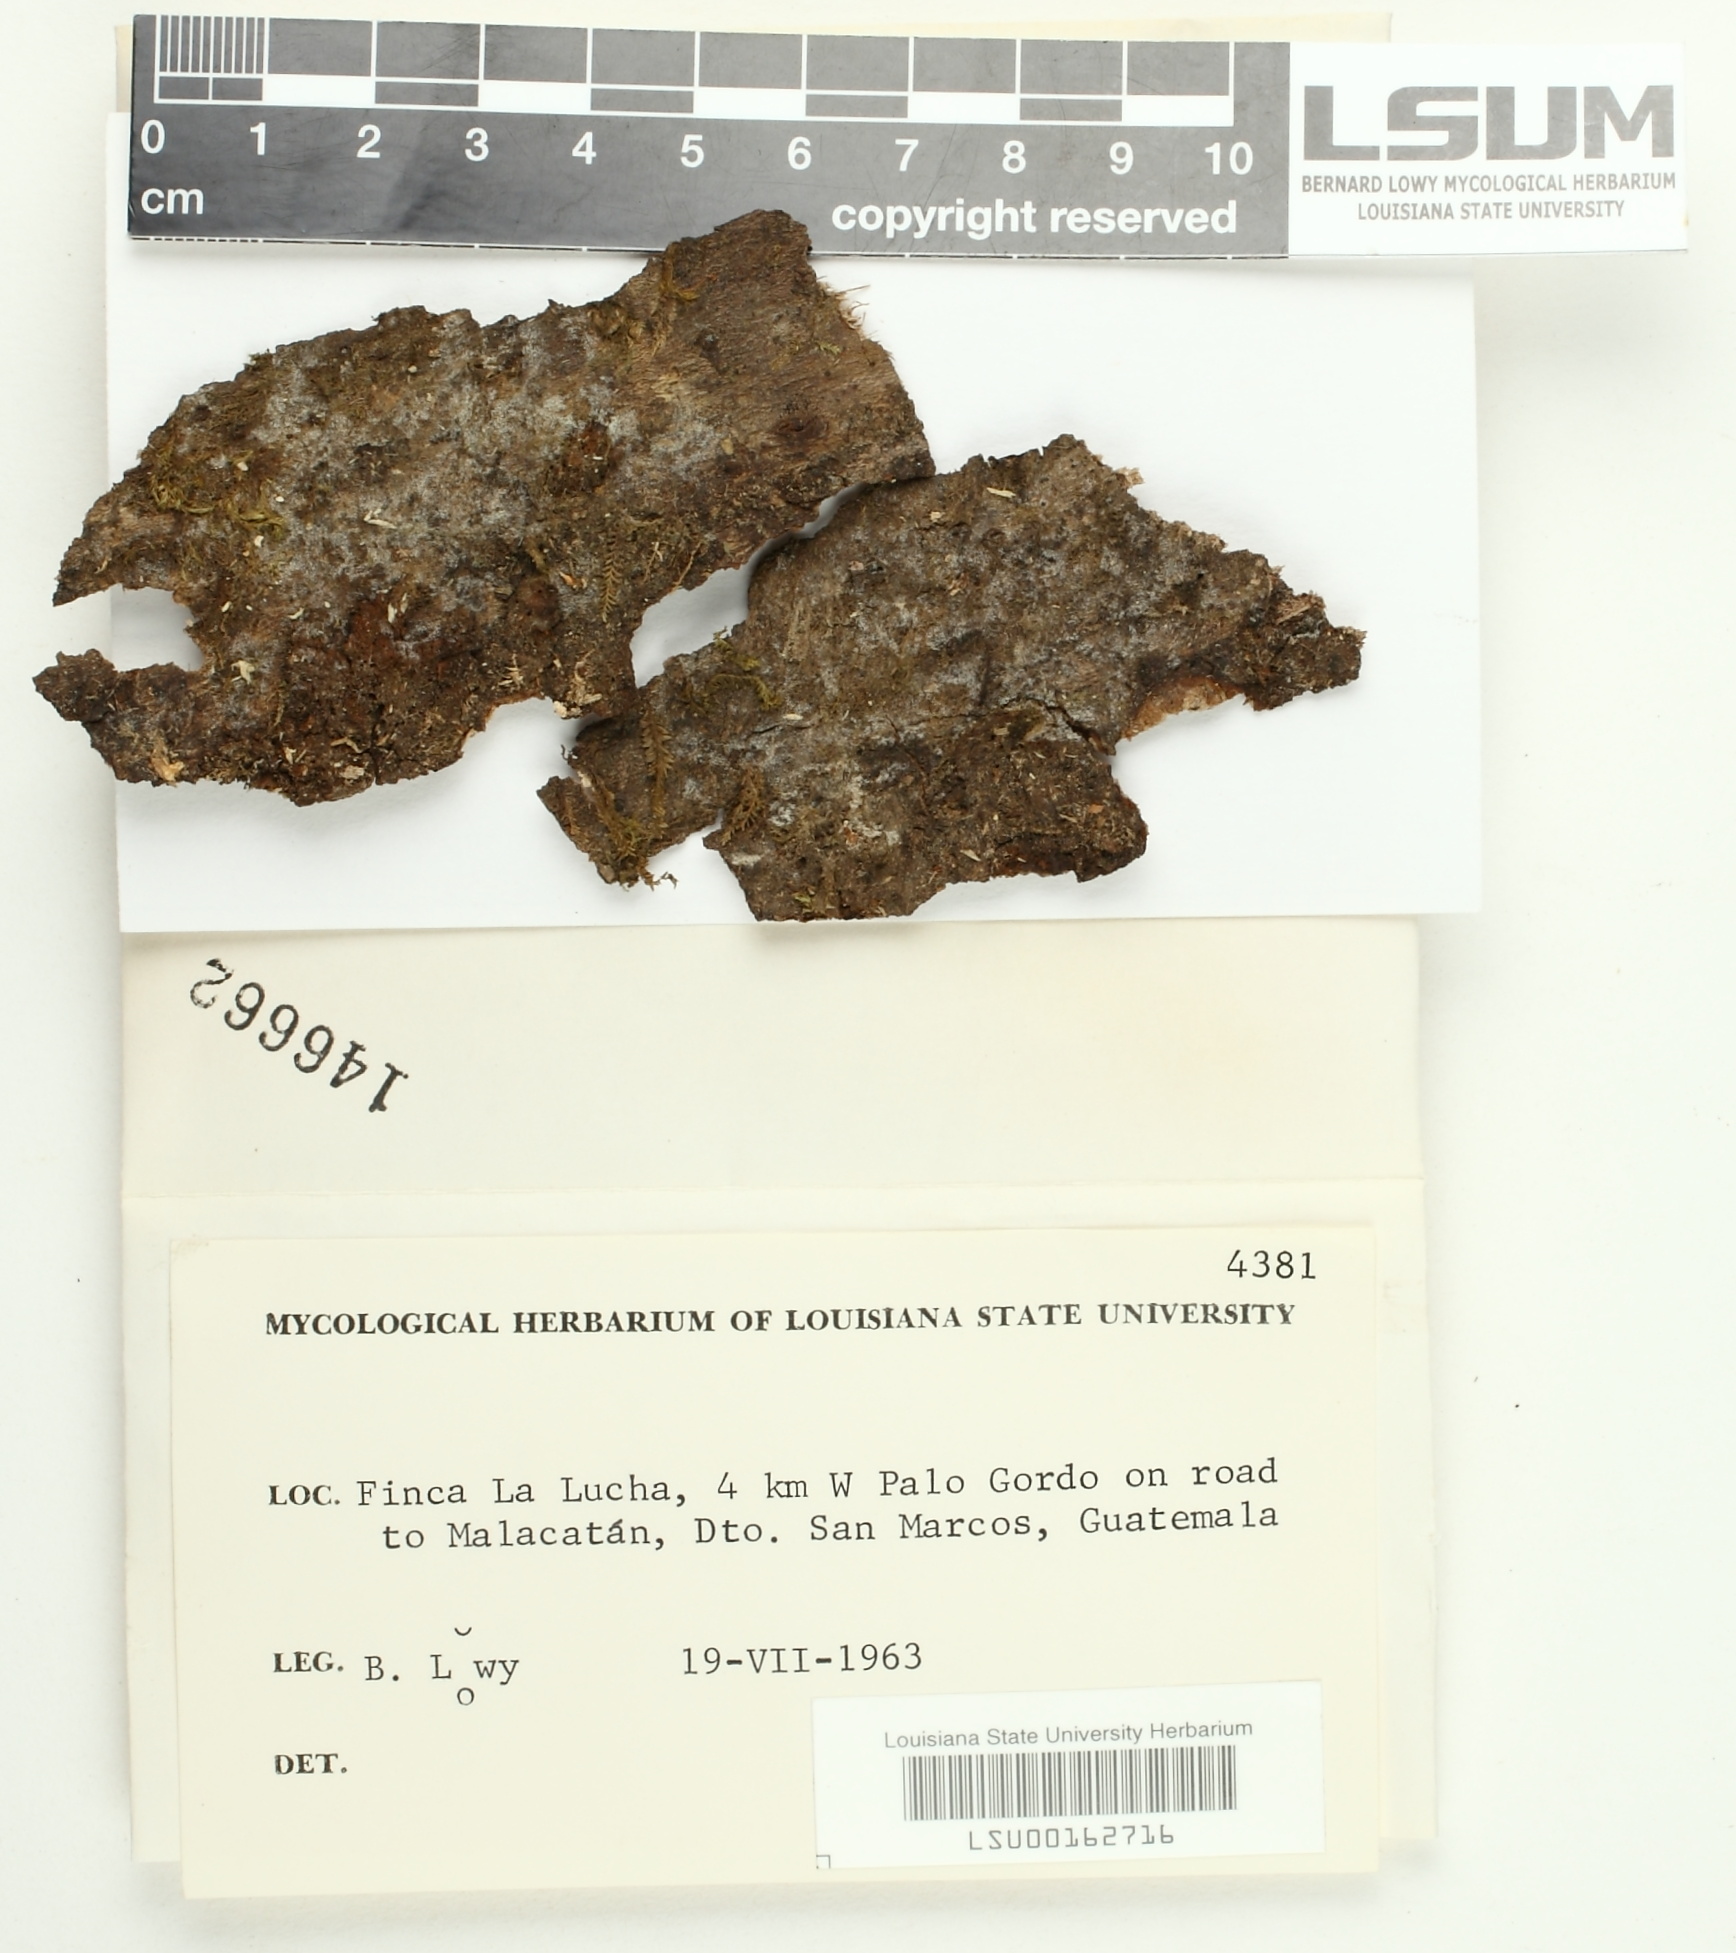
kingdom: Fungi
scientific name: Fungi
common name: Fungi
